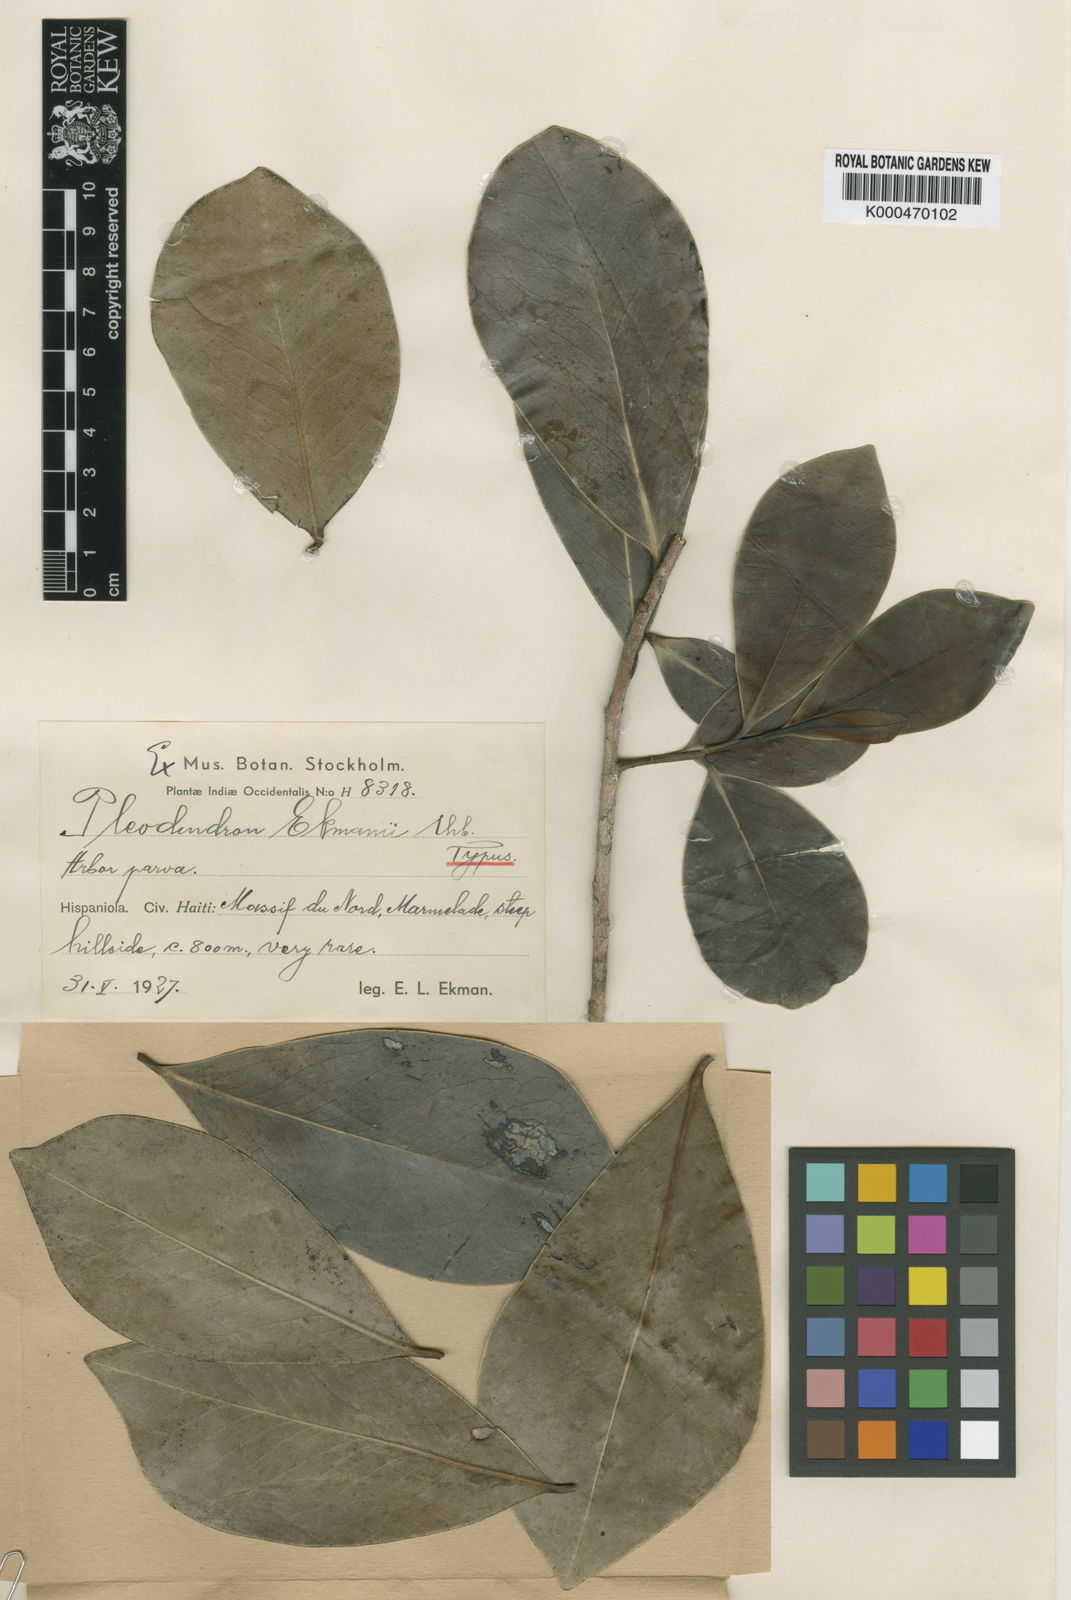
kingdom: Plantae
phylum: Tracheophyta
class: Magnoliopsida
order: Canellales
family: Canellaceae
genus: Pleodendron
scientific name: Pleodendron ekmanii
